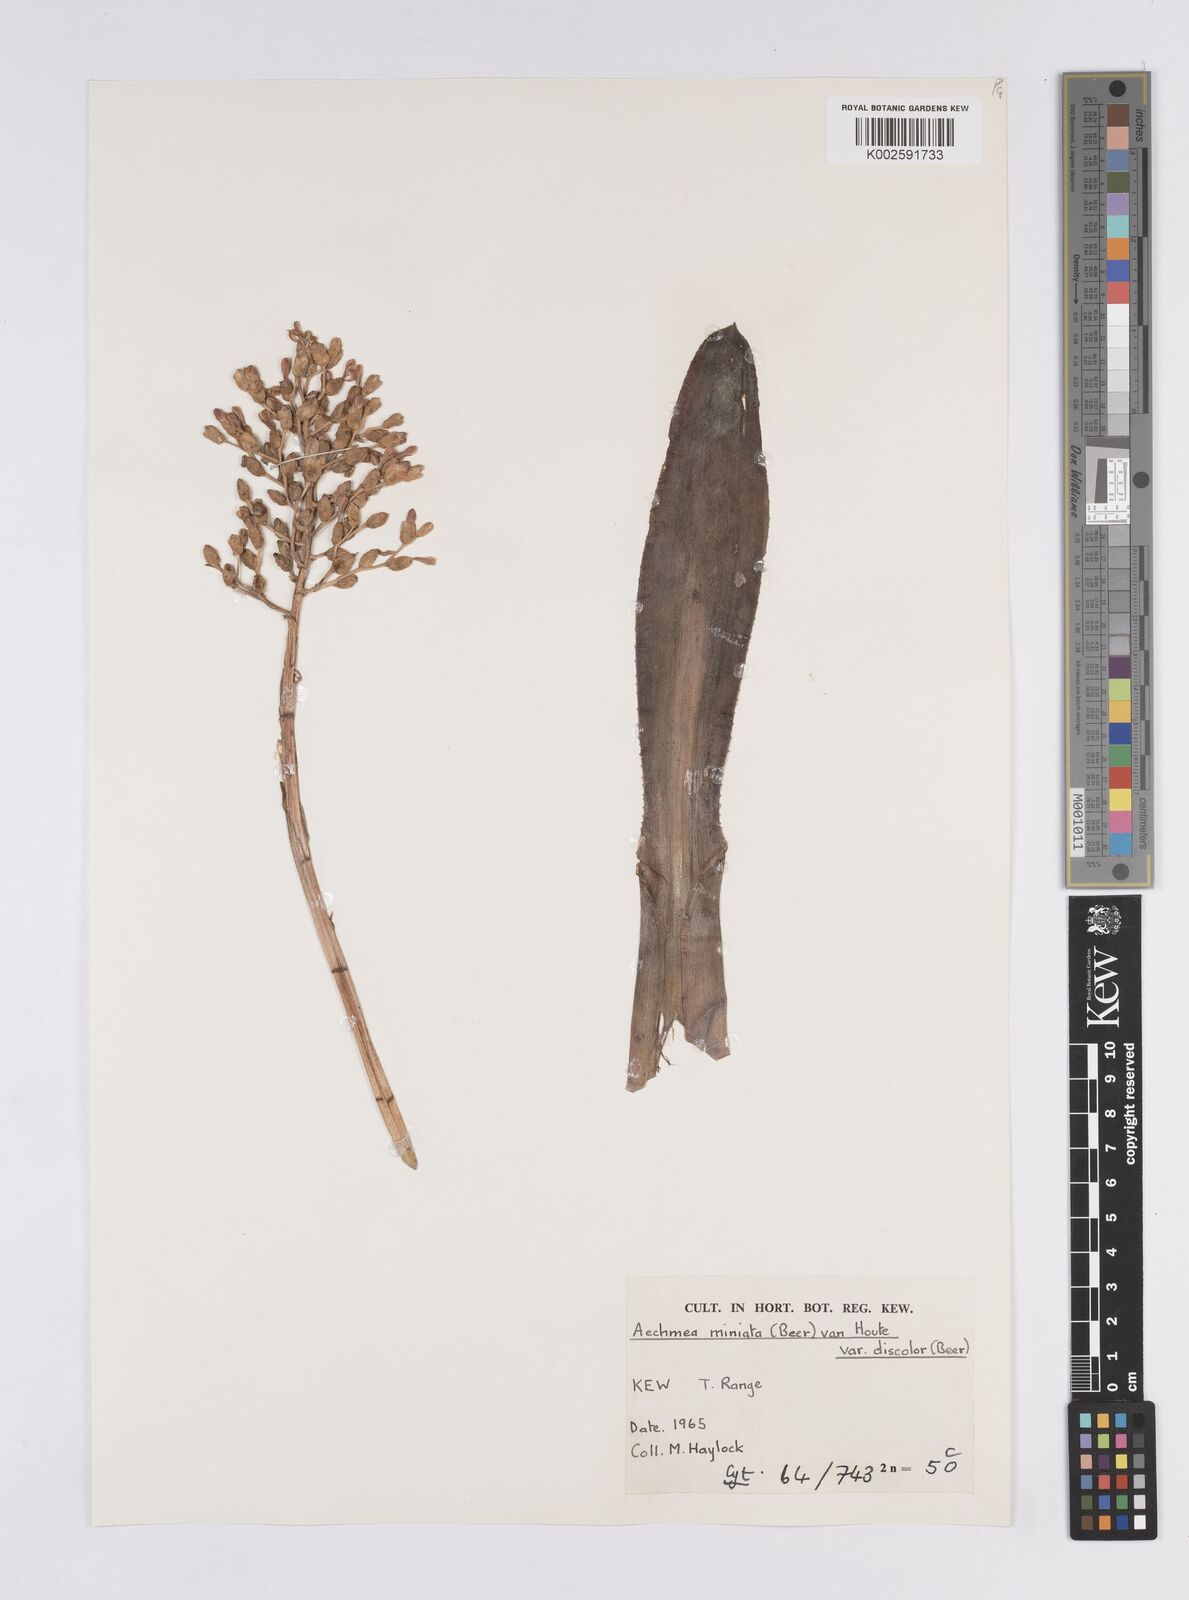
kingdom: Plantae
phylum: Tracheophyta
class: Liliopsida
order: Poales
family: Bromeliaceae
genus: Aechmea
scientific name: Aechmea miniata
